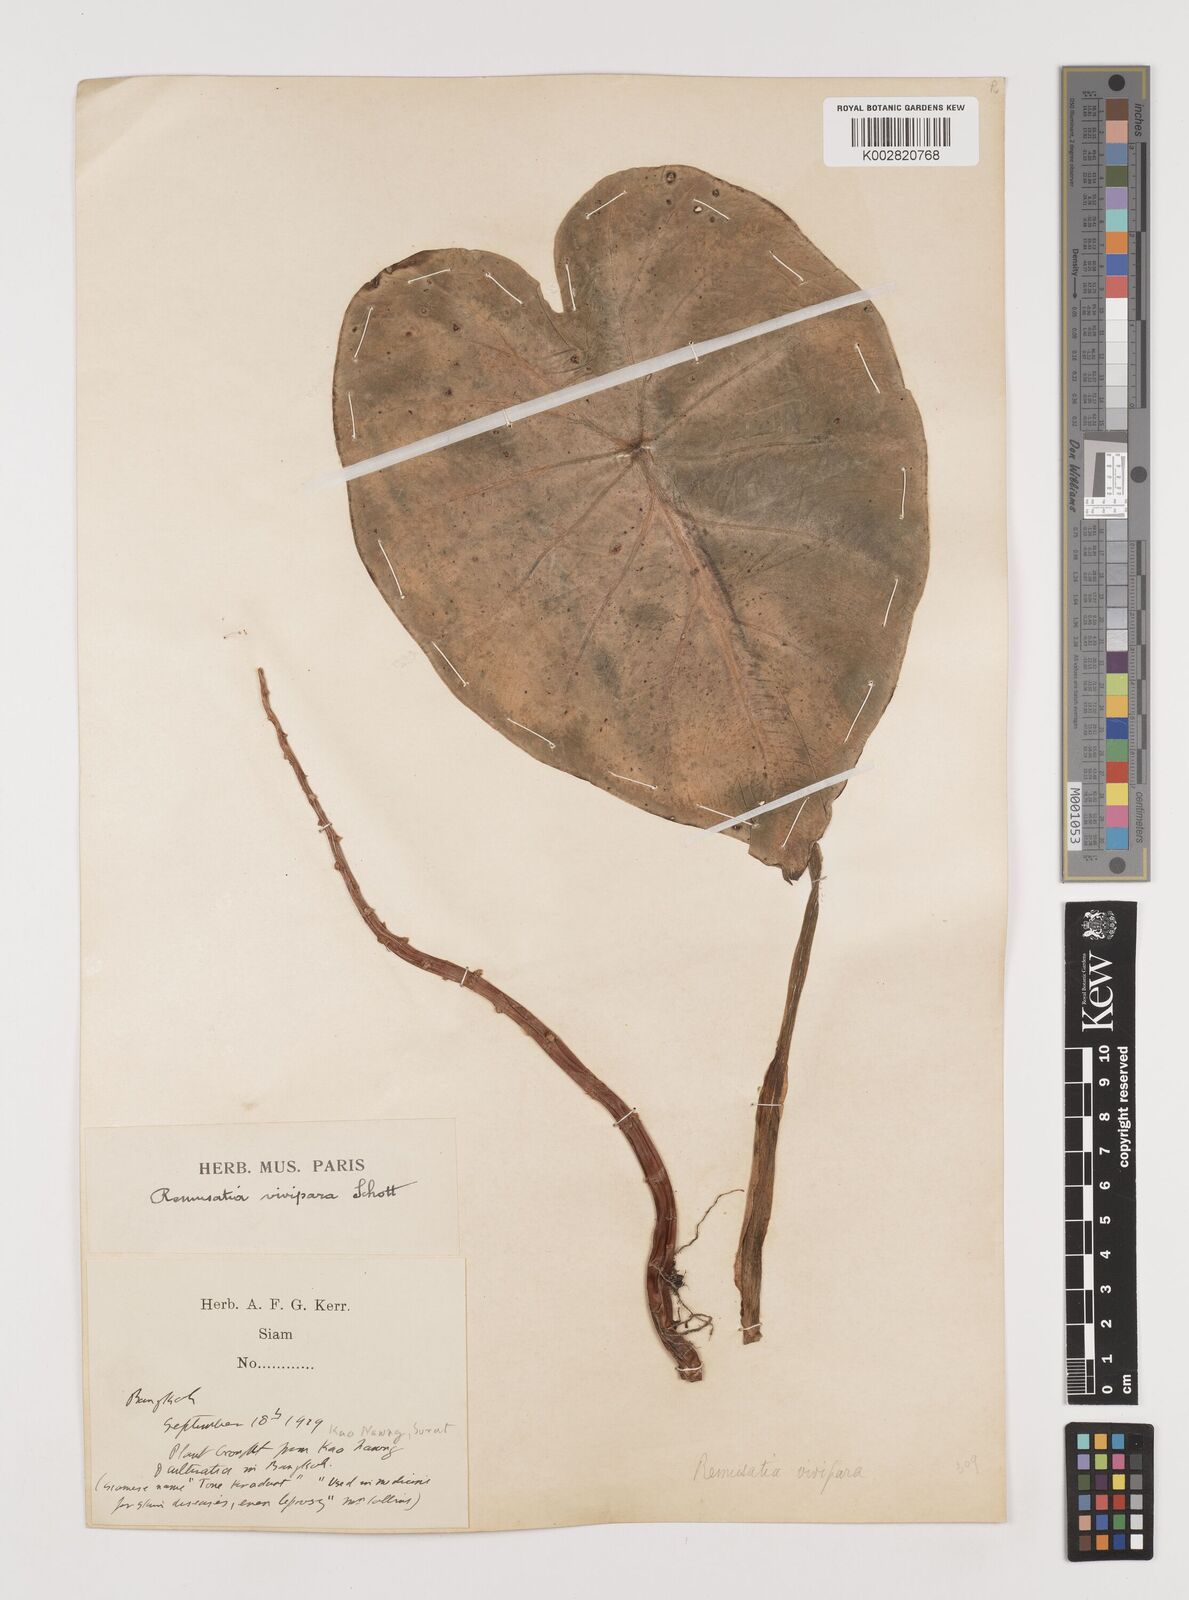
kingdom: Plantae
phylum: Tracheophyta
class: Liliopsida
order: Alismatales
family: Araceae
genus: Remusatia
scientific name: Remusatia vivipara
